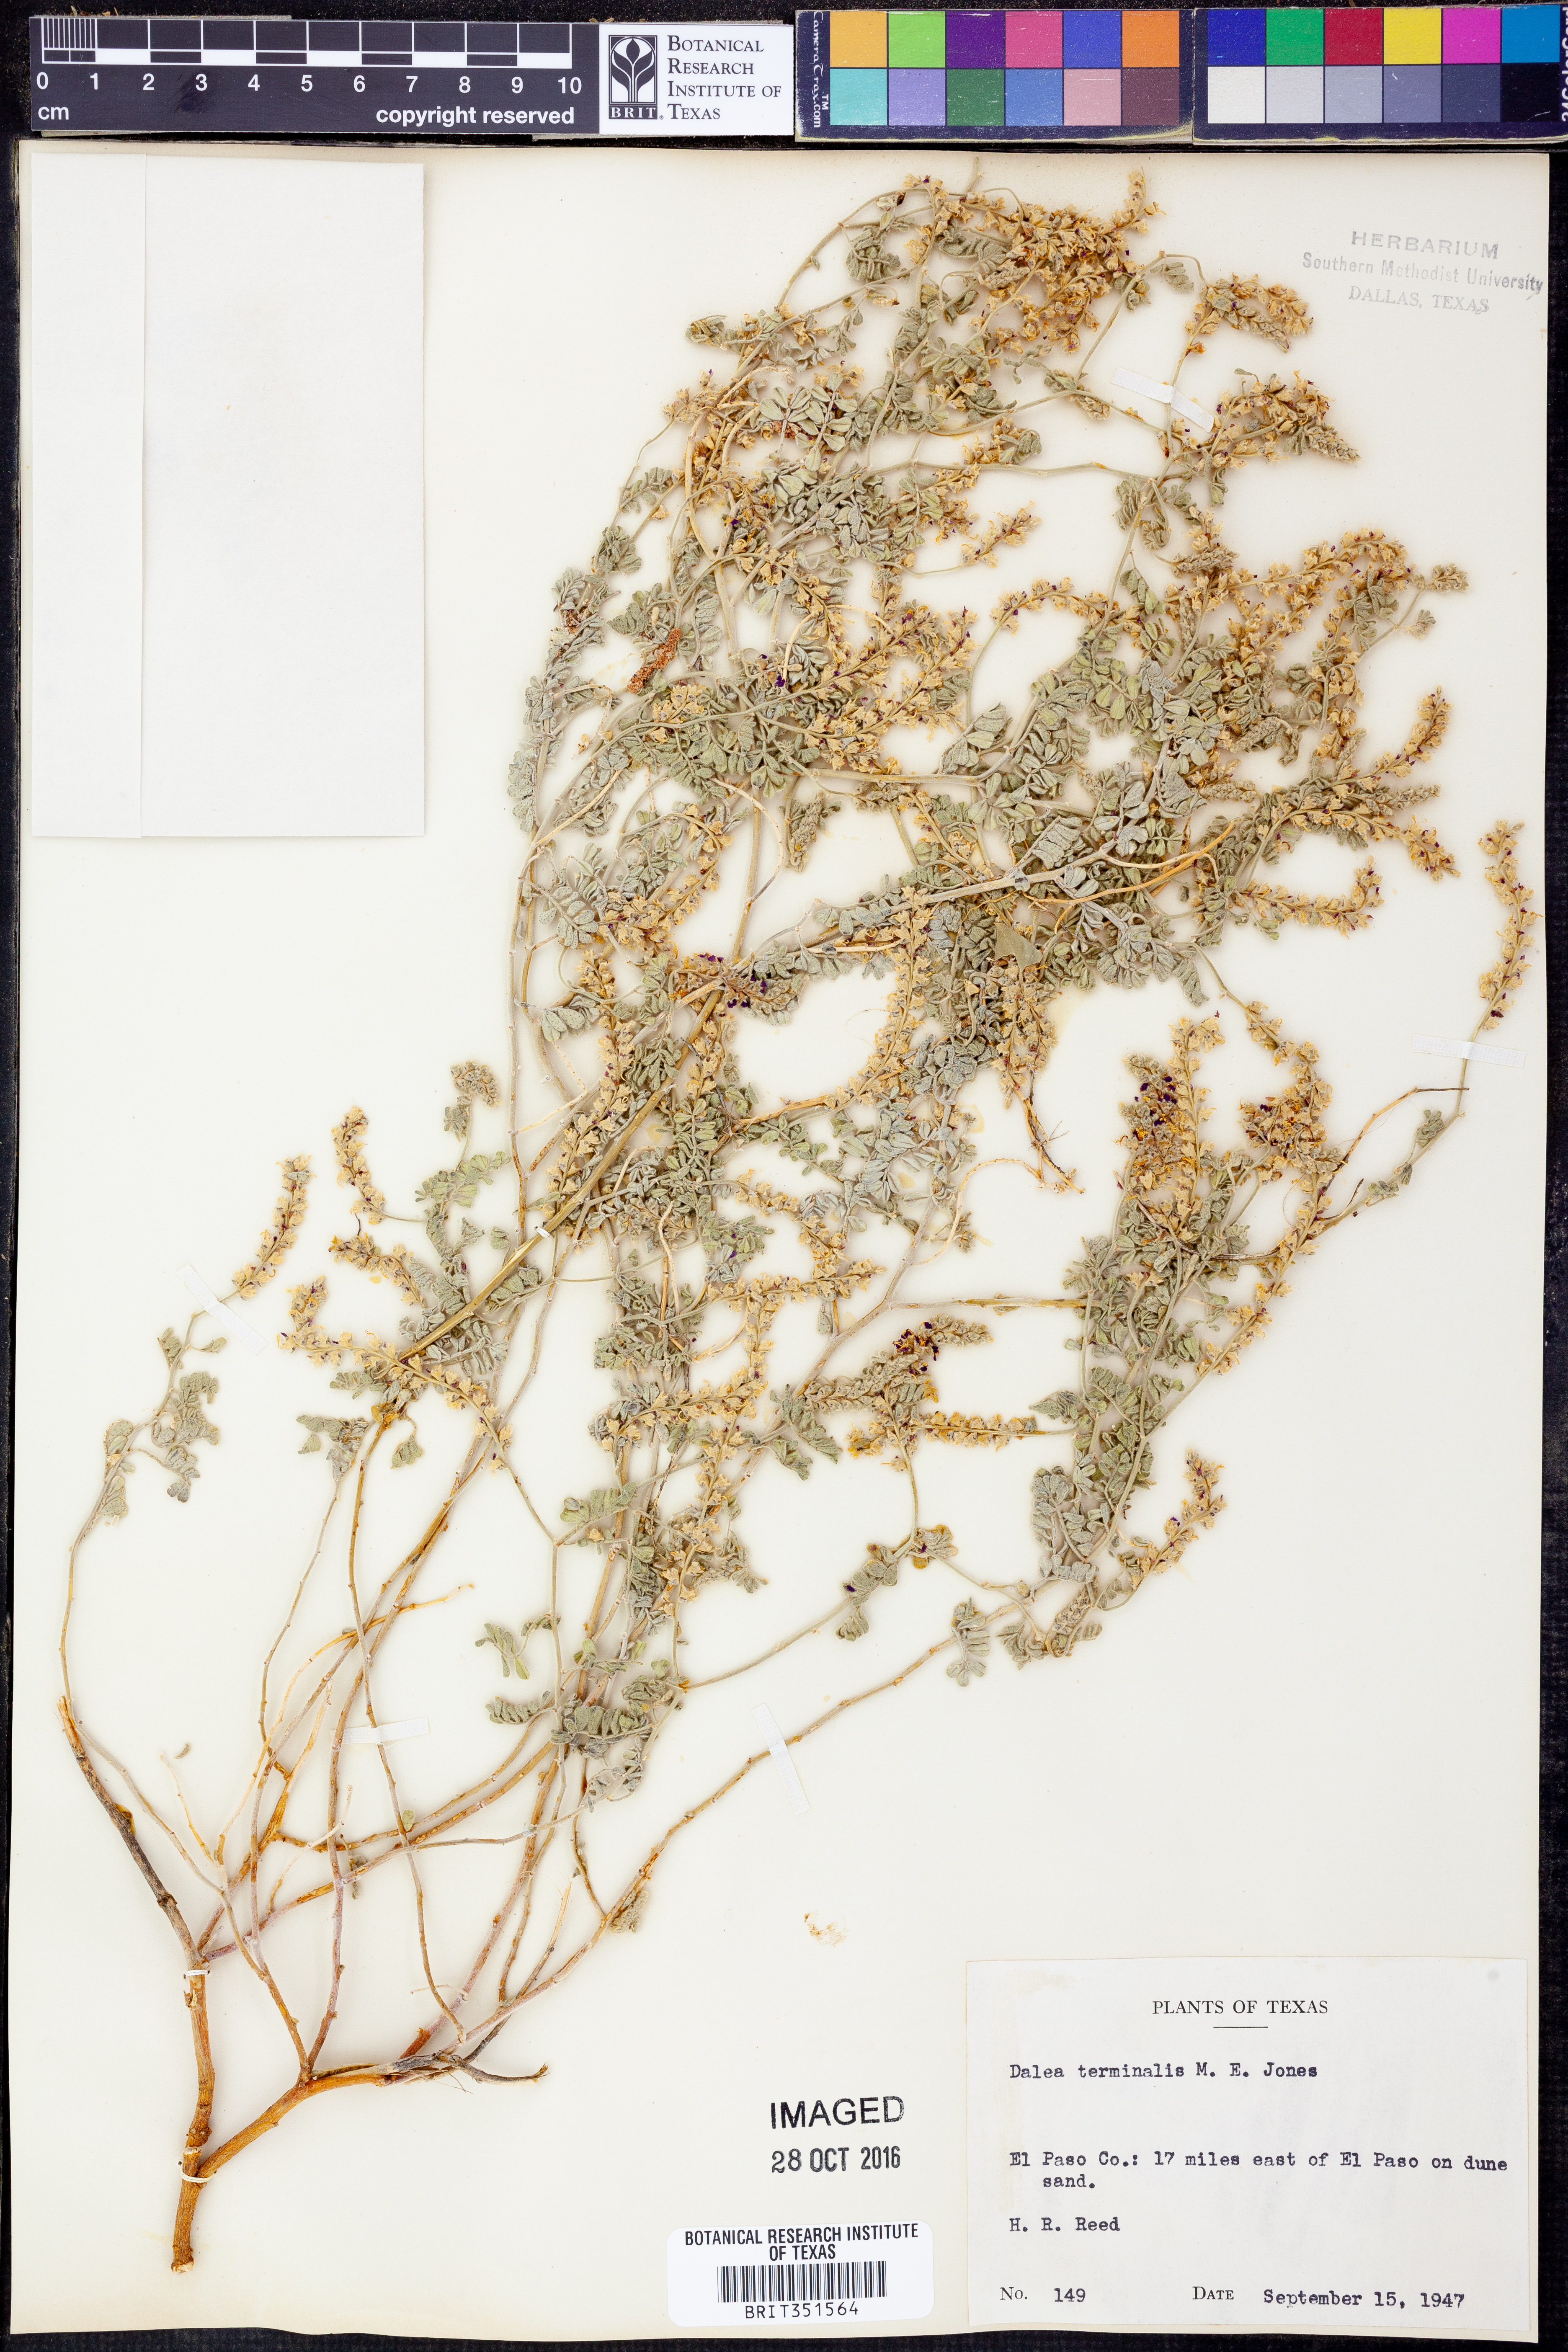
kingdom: Plantae
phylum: Tracheophyta
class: Magnoliopsida
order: Fabales
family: Fabaceae
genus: Dalea
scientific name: Dalea lanata
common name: Woolly dalea
